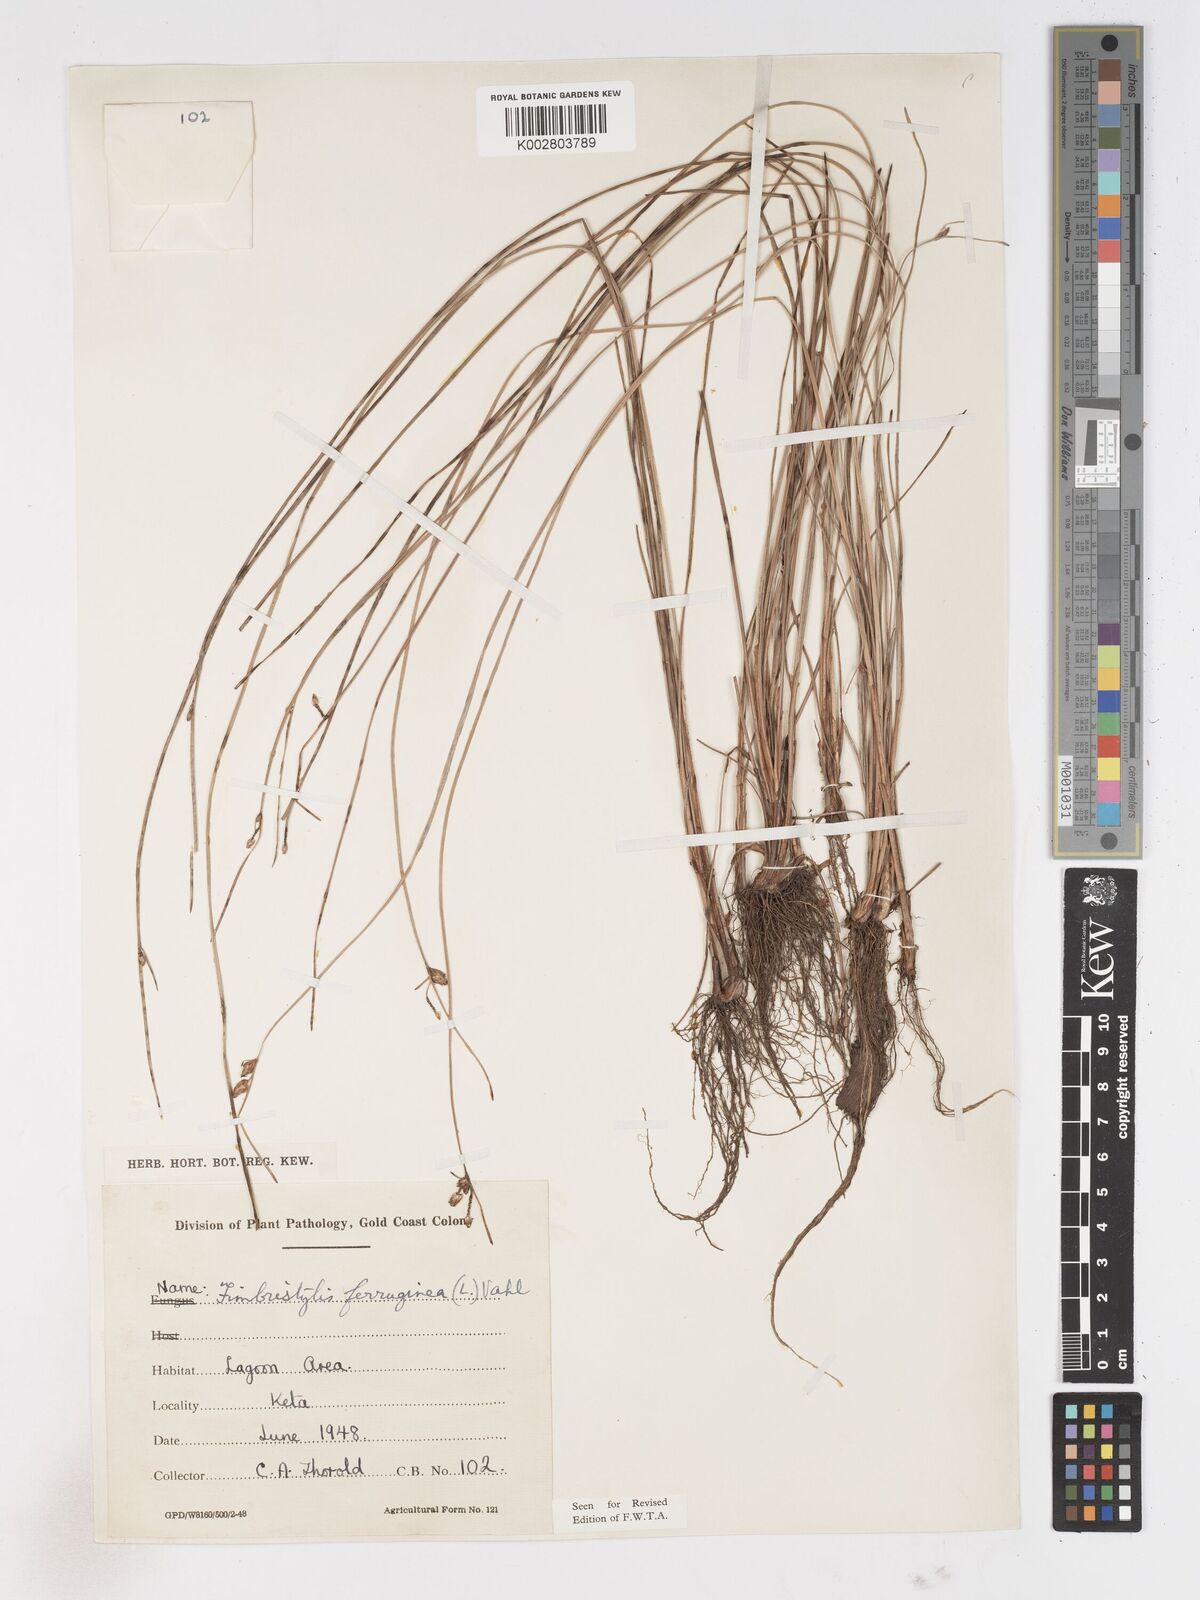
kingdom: Plantae
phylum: Tracheophyta
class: Liliopsida
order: Poales
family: Cyperaceae
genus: Fimbristylis
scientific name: Fimbristylis ferruginea
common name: West indian fimbry
